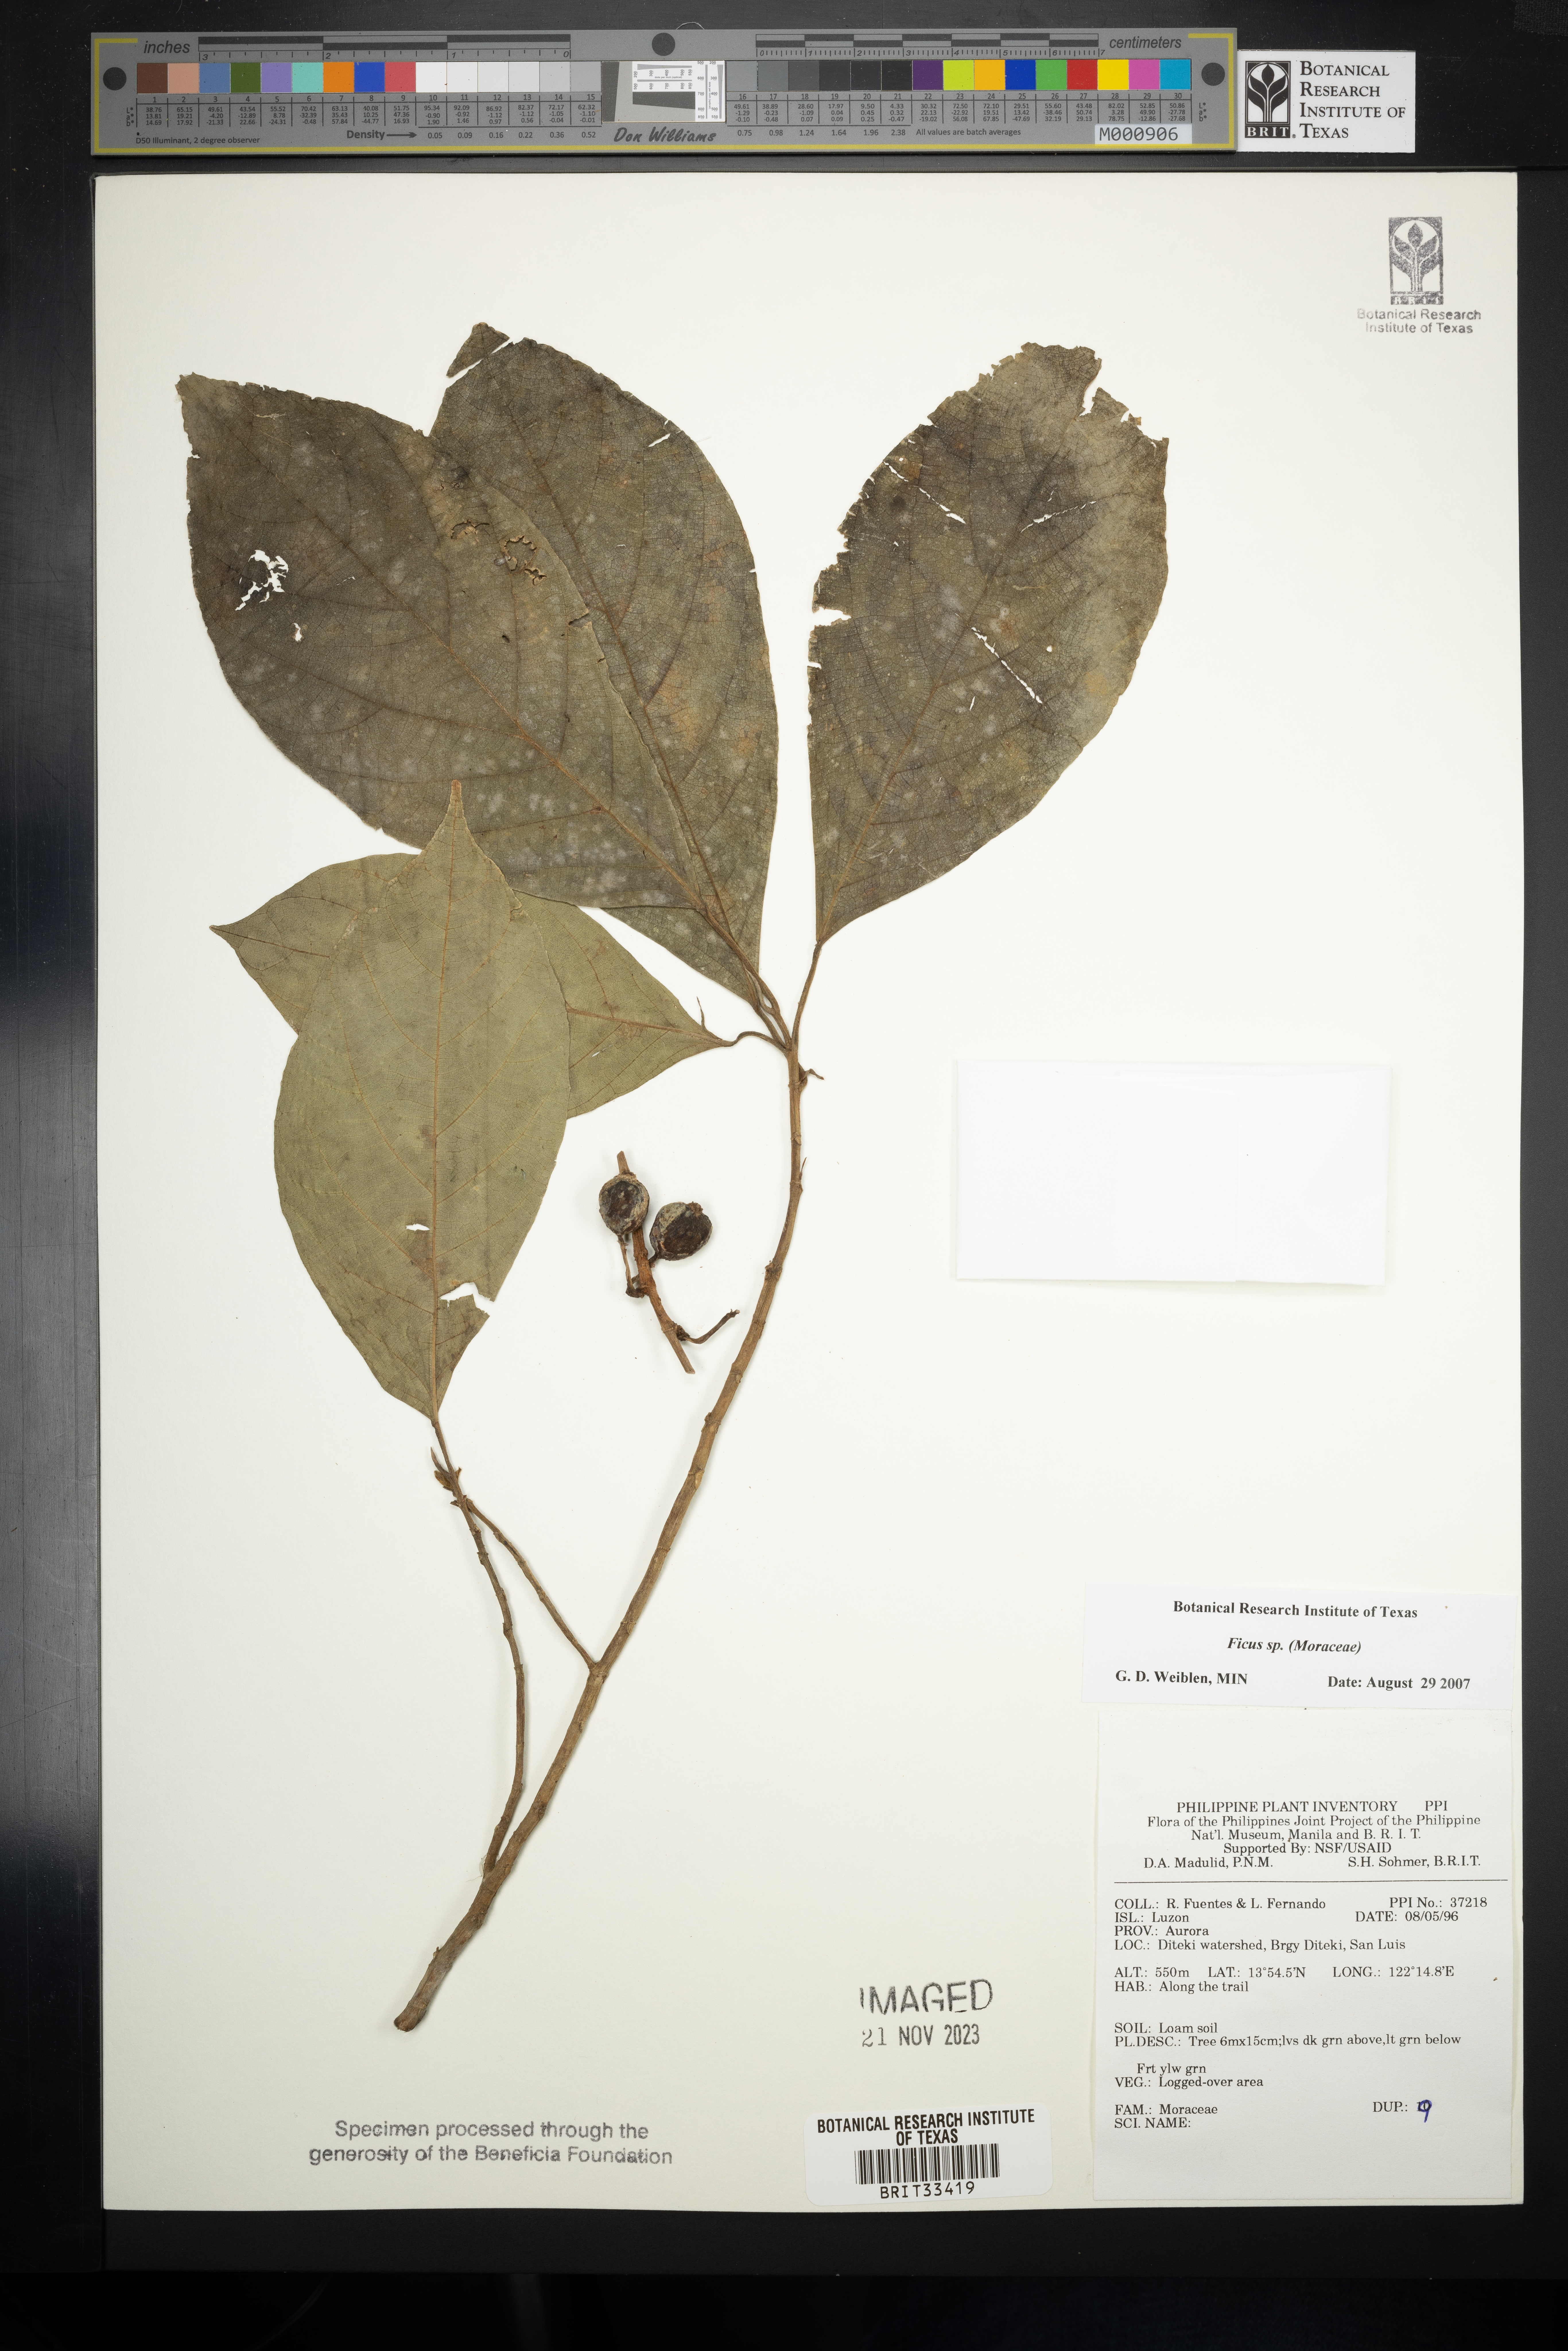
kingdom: Plantae
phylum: Tracheophyta
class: Magnoliopsida
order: Rosales
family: Moraceae
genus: Ficus
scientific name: Ficus
